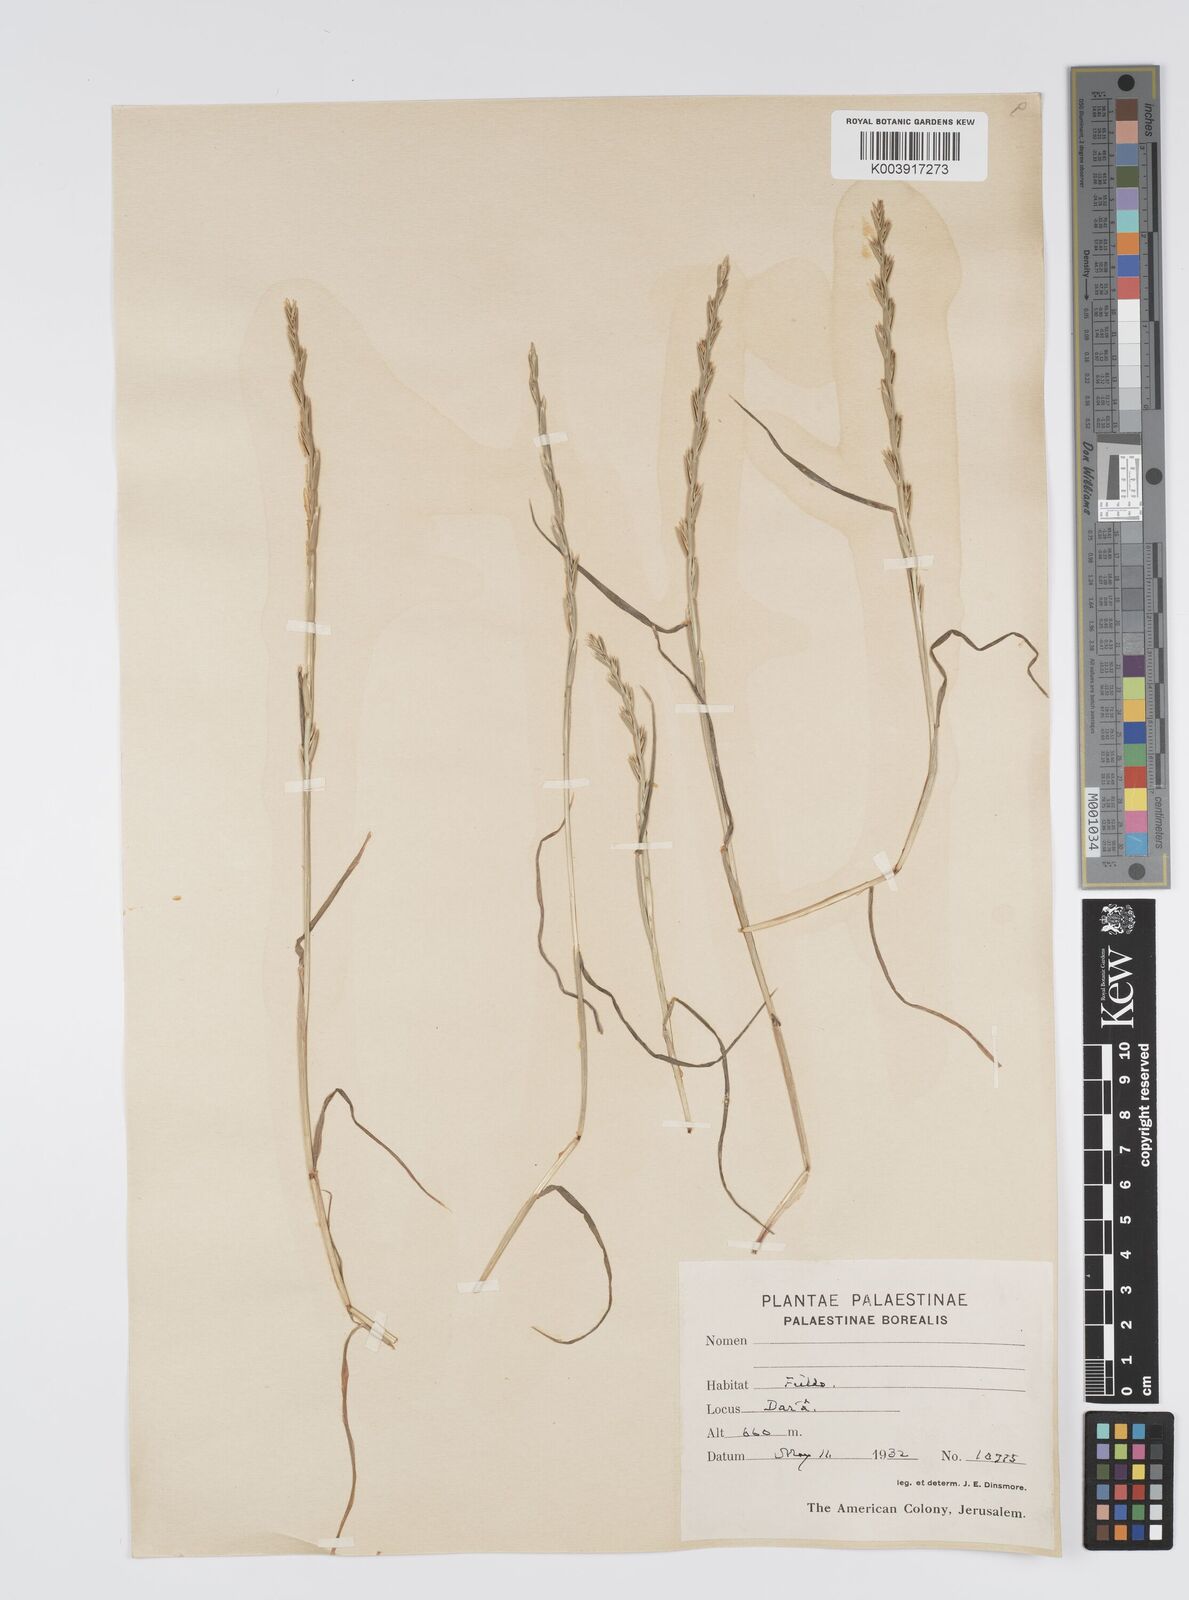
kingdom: Plantae
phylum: Tracheophyta
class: Liliopsida
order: Poales
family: Poaceae
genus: Lolium
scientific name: Lolium rigidum
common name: Wimmera ryegrass
